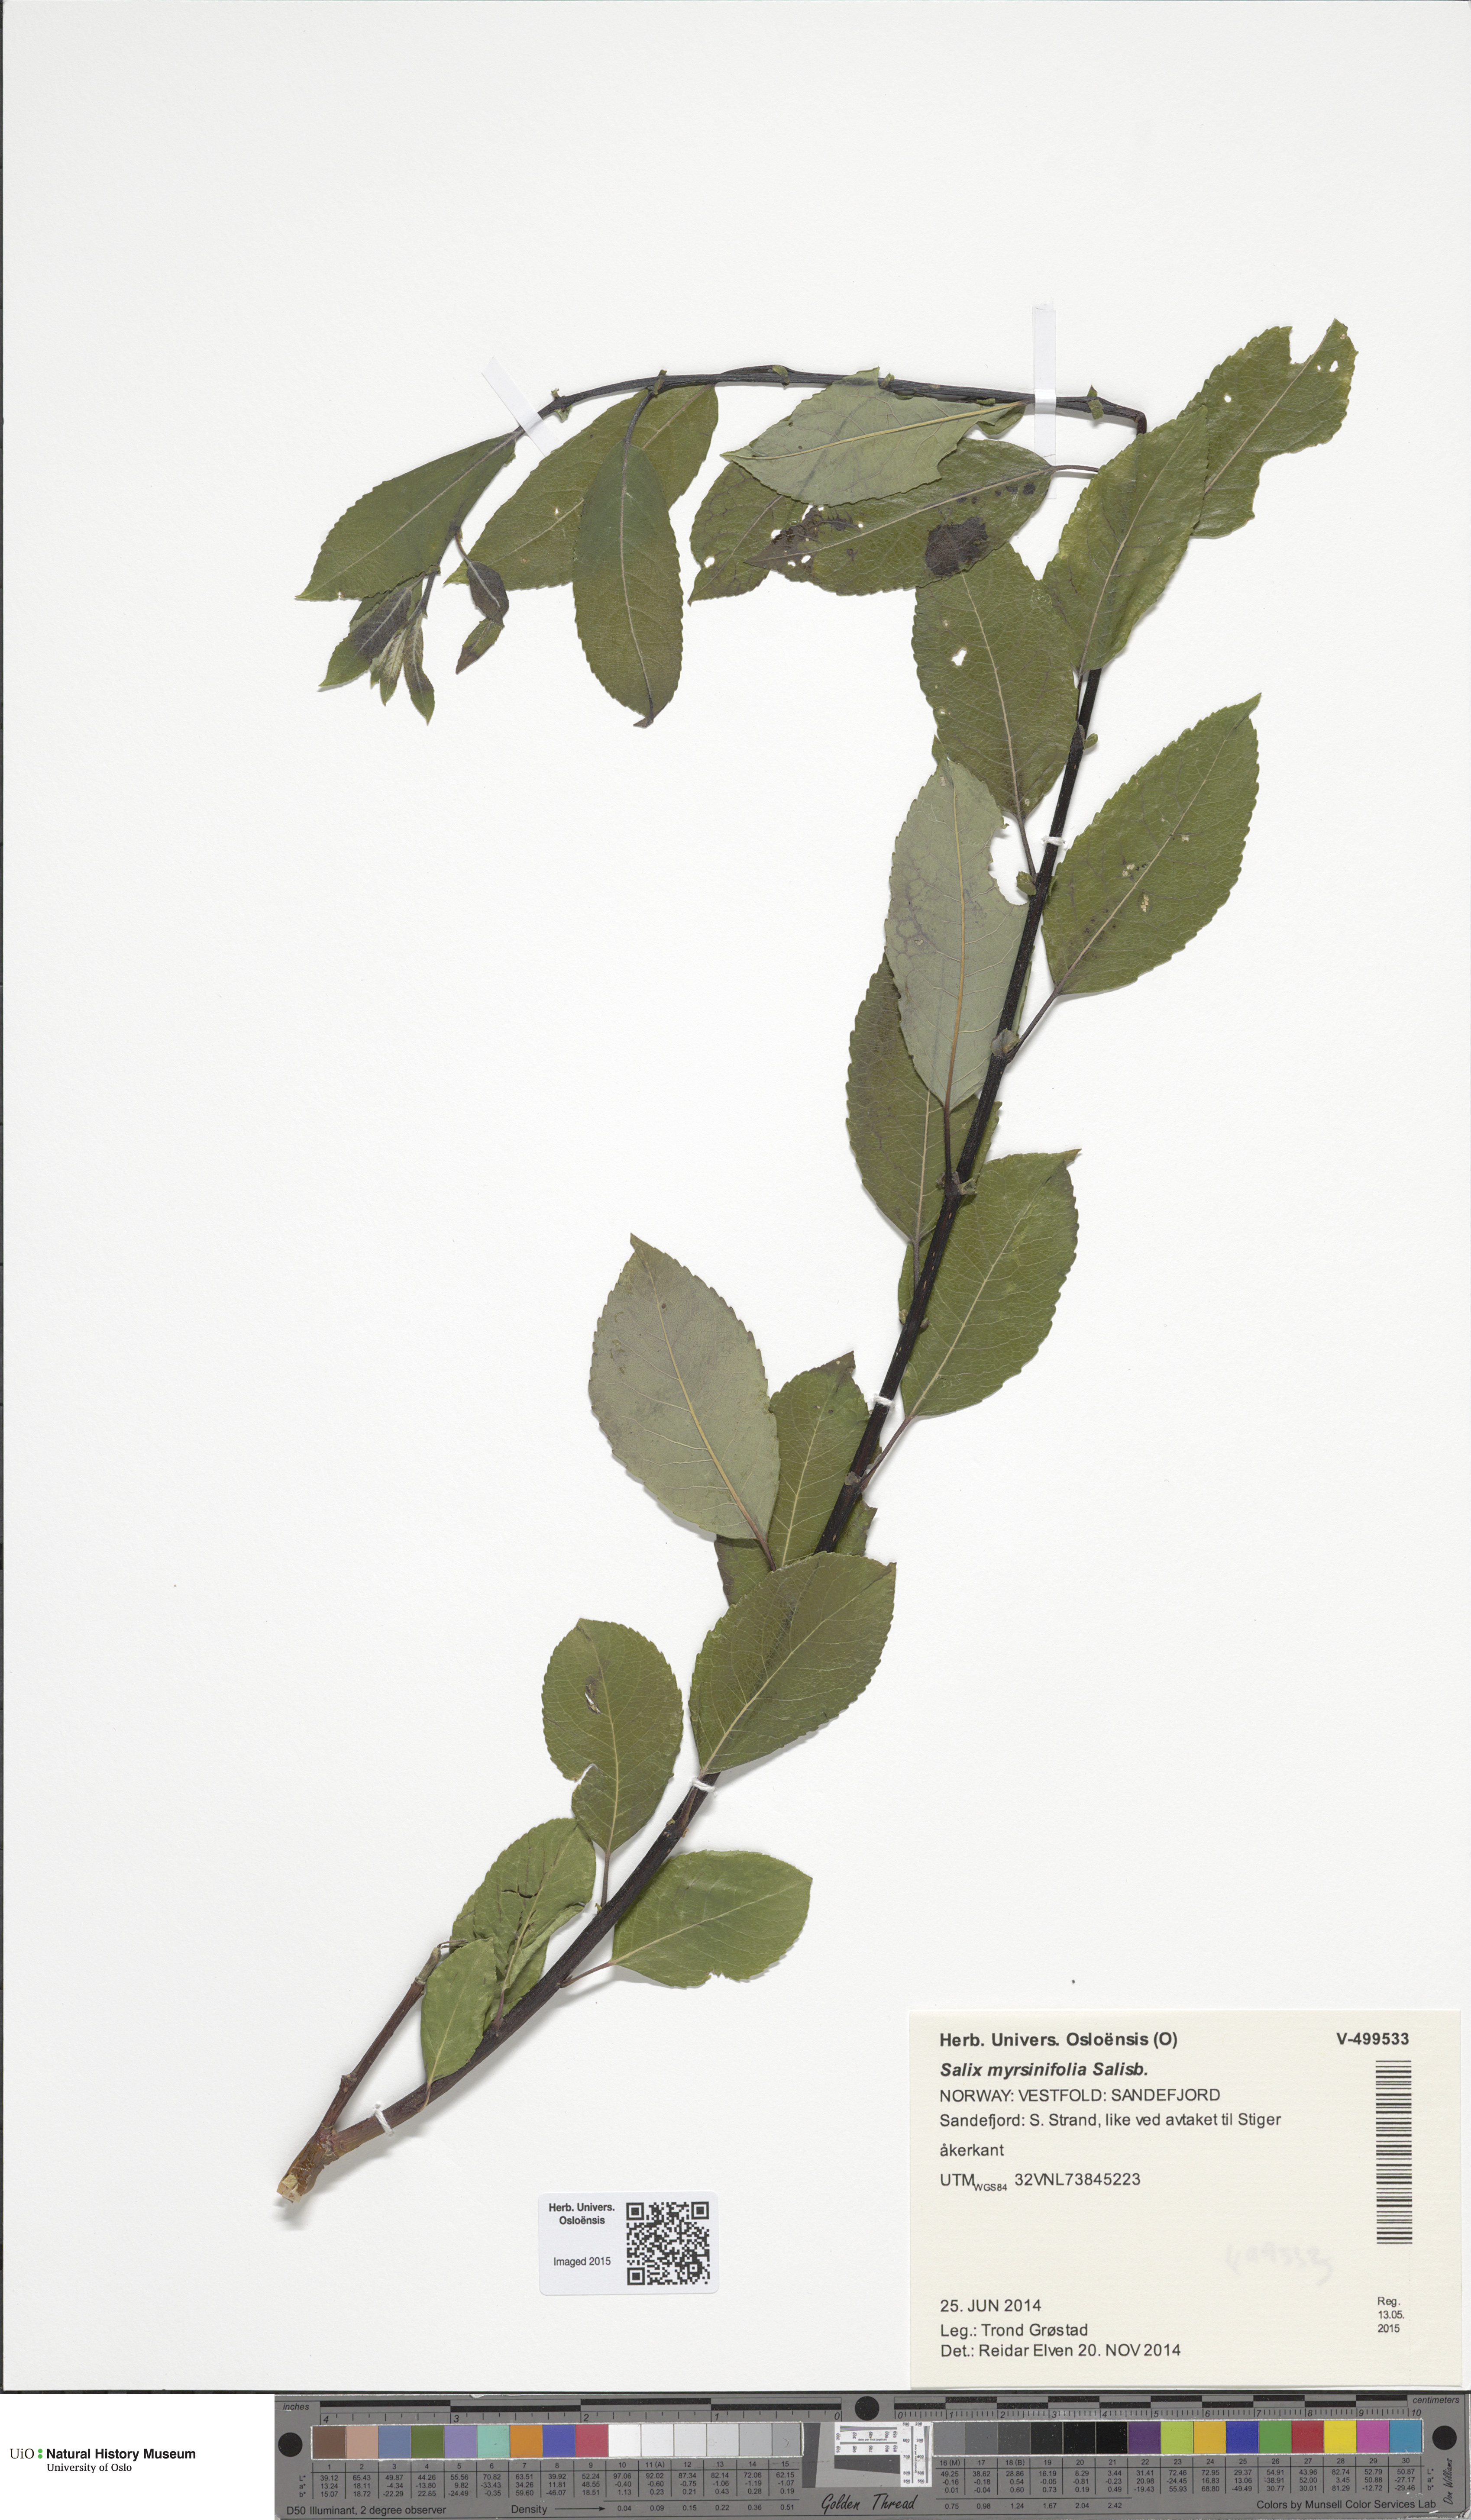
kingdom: Plantae
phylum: Tracheophyta
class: Magnoliopsida
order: Malpighiales
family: Salicaceae
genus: Salix
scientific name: Salix myrsinifolia
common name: Dark-leaved willow
